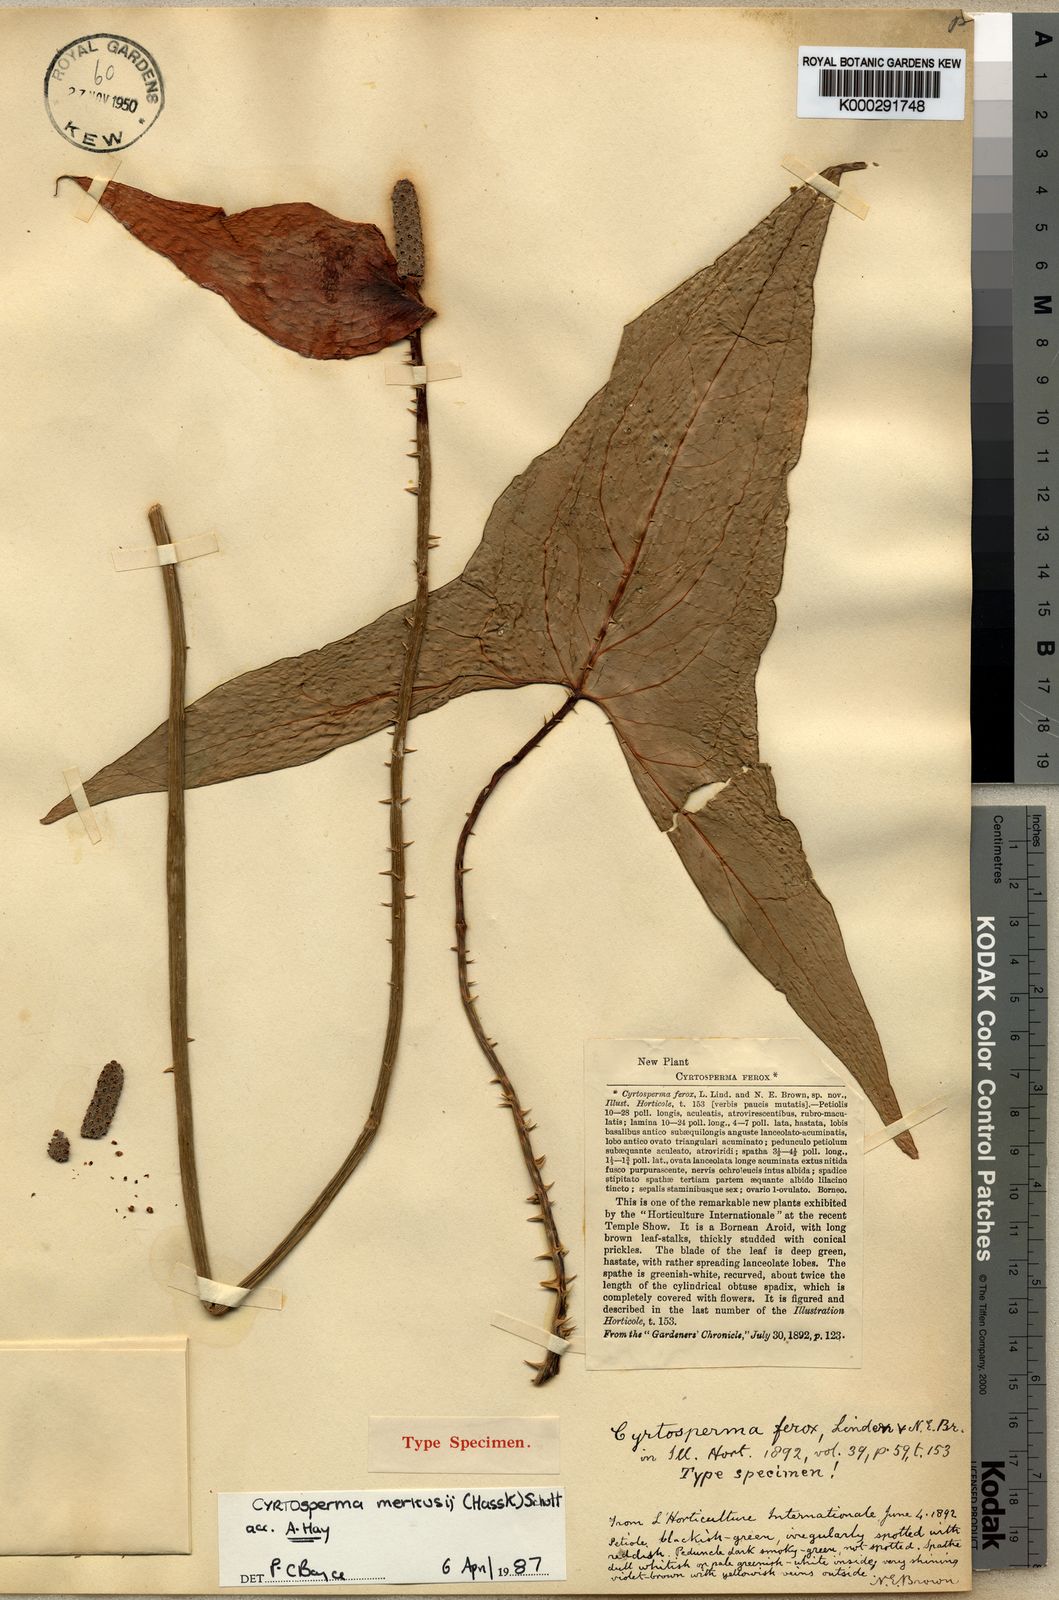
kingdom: Plantae
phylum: Tracheophyta
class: Liliopsida
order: Alismatales
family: Araceae
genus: Cyrtosperma
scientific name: Cyrtosperma merkusii
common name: Giant swamp-taro
